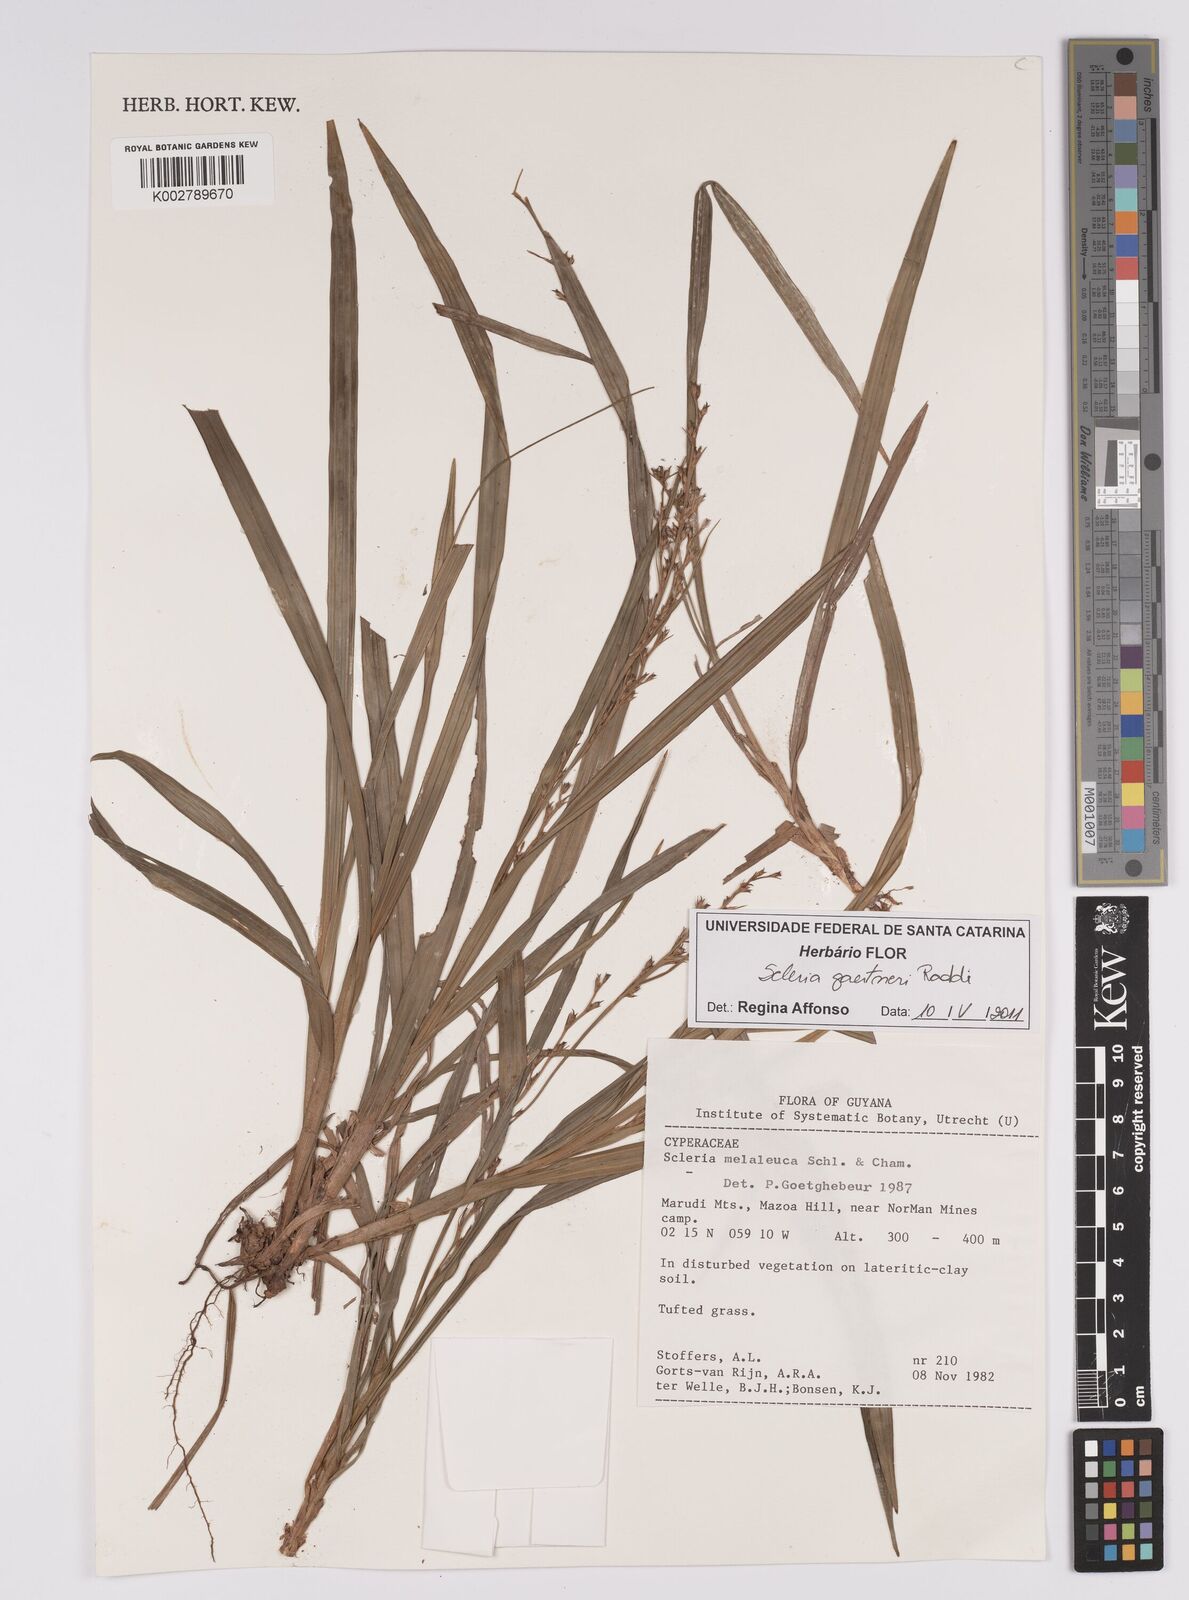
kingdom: Plantae
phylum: Tracheophyta
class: Liliopsida
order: Poales
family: Cyperaceae
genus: Scleria
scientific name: Scleria gaertneri
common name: Cortadera blanca
